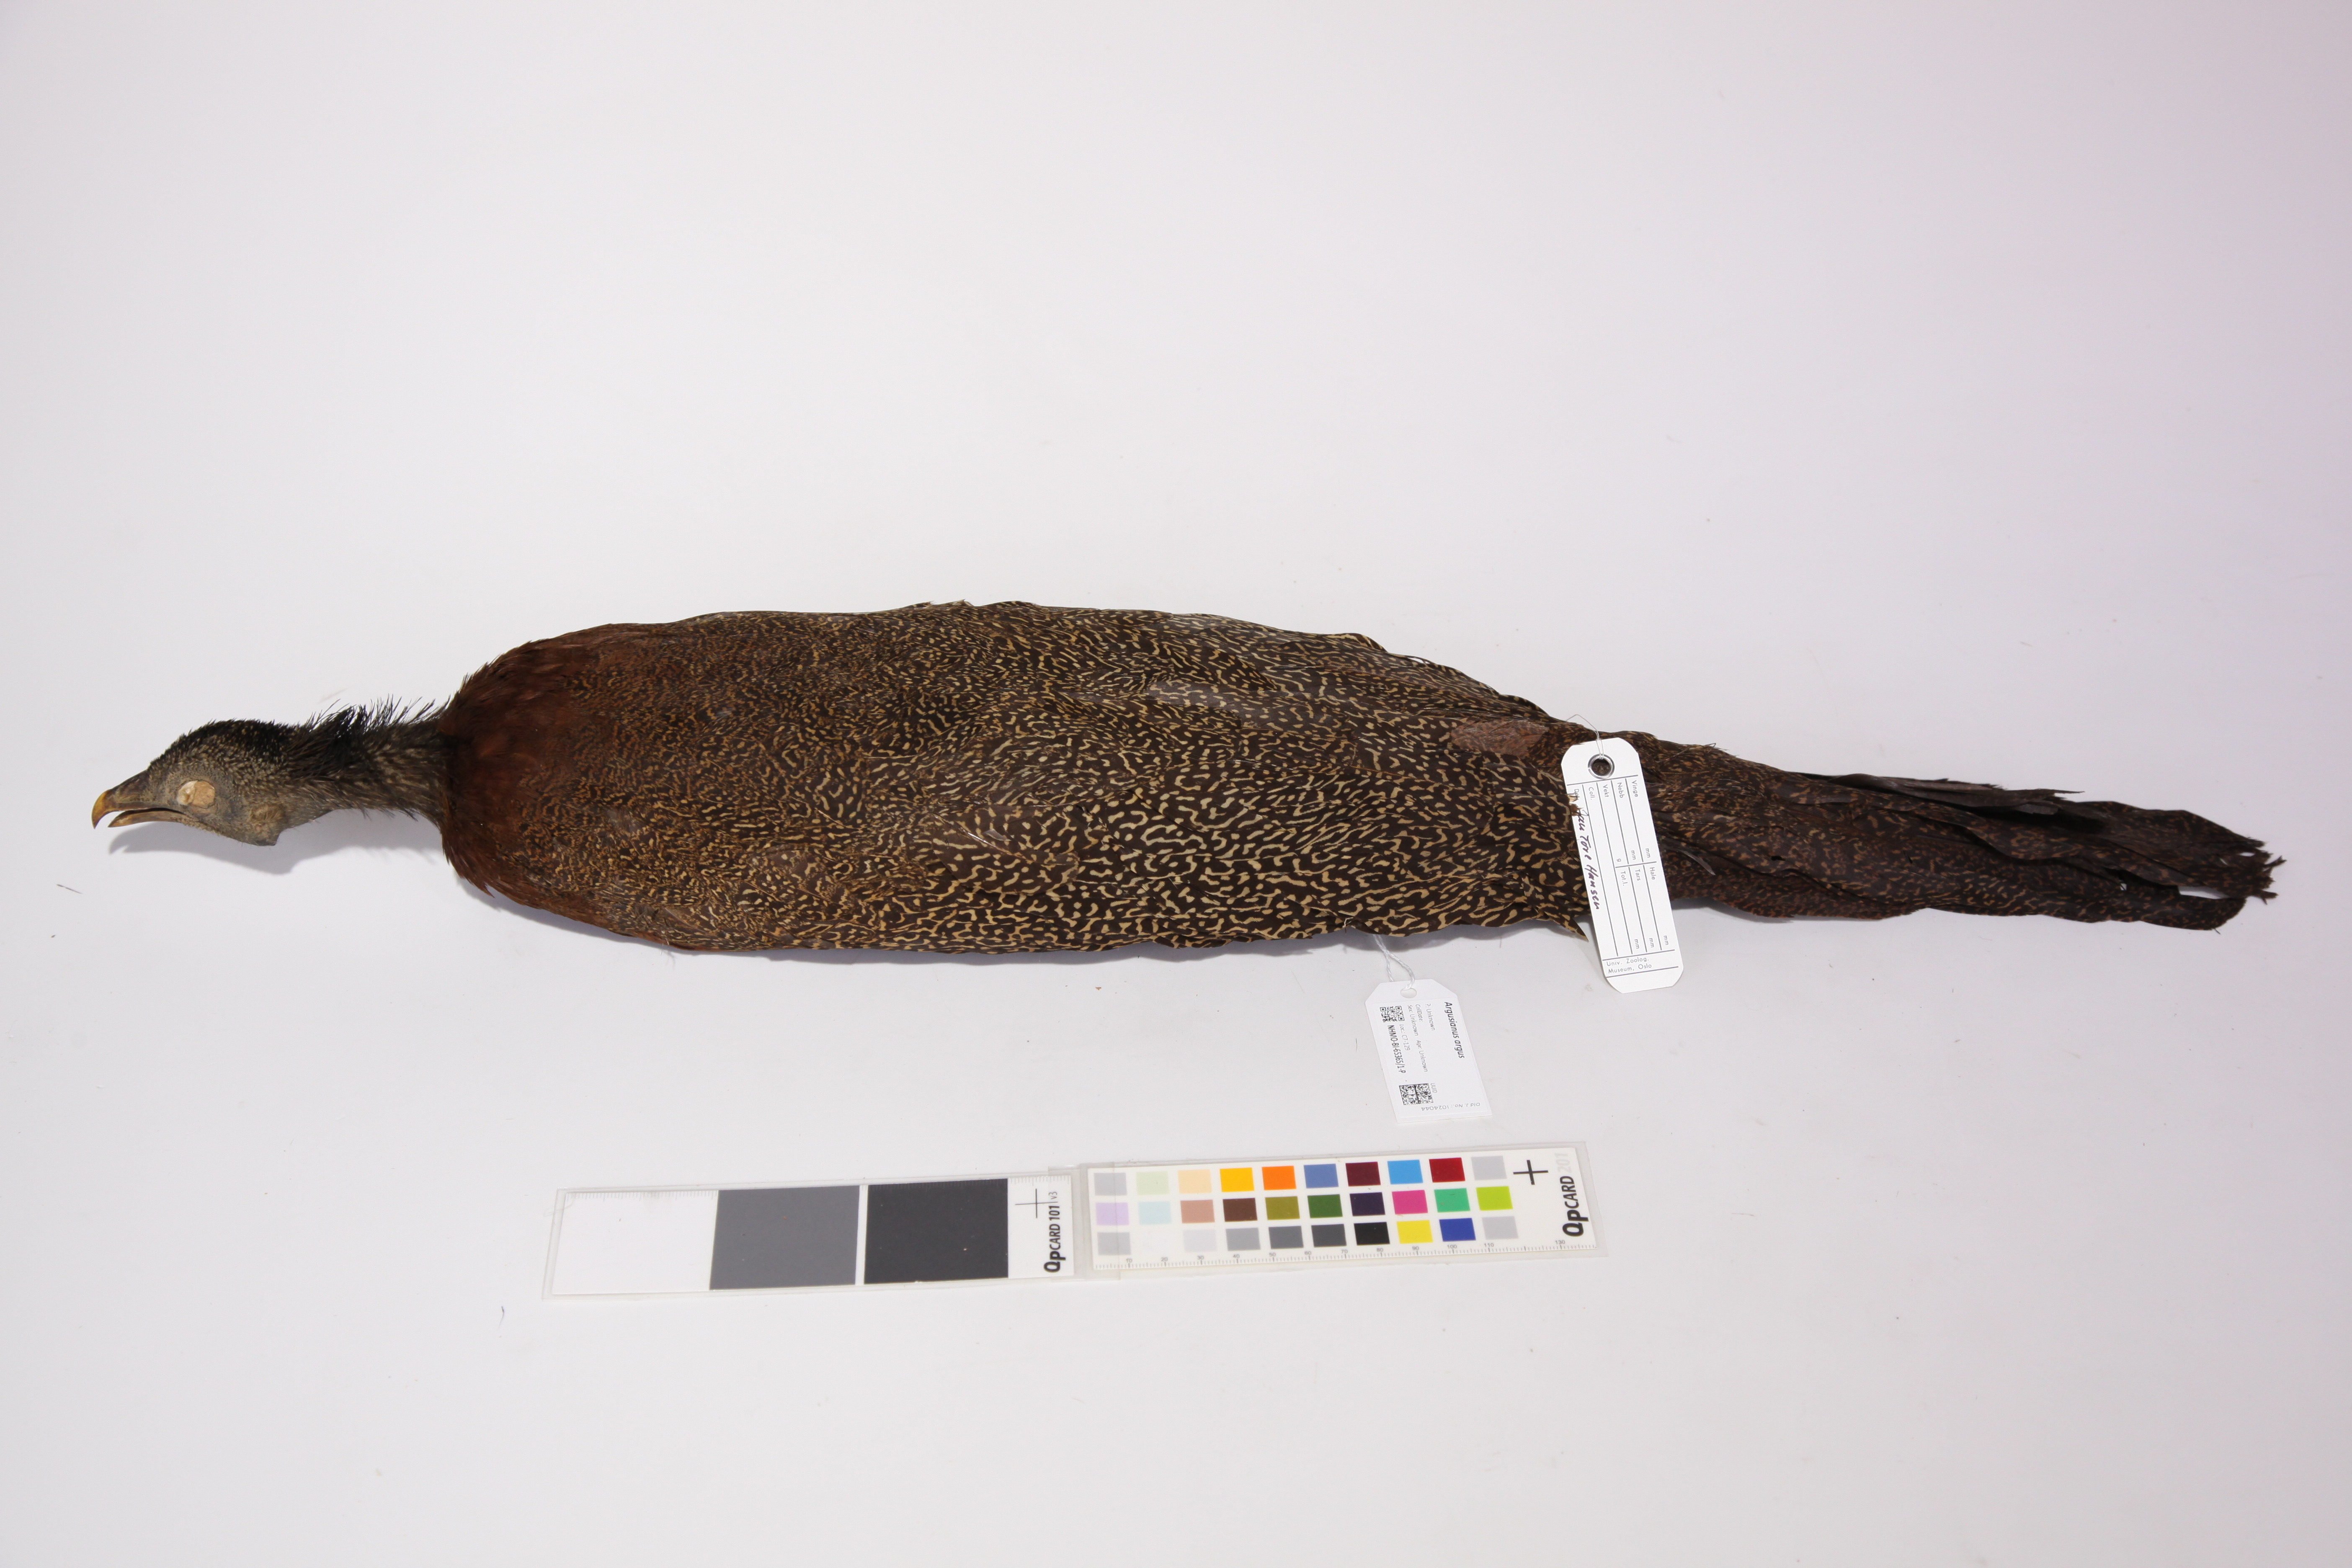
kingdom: Animalia
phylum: Chordata
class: Aves
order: Galliformes
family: Phasianidae
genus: Argusianus
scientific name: Argusianus argus
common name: Great argus
